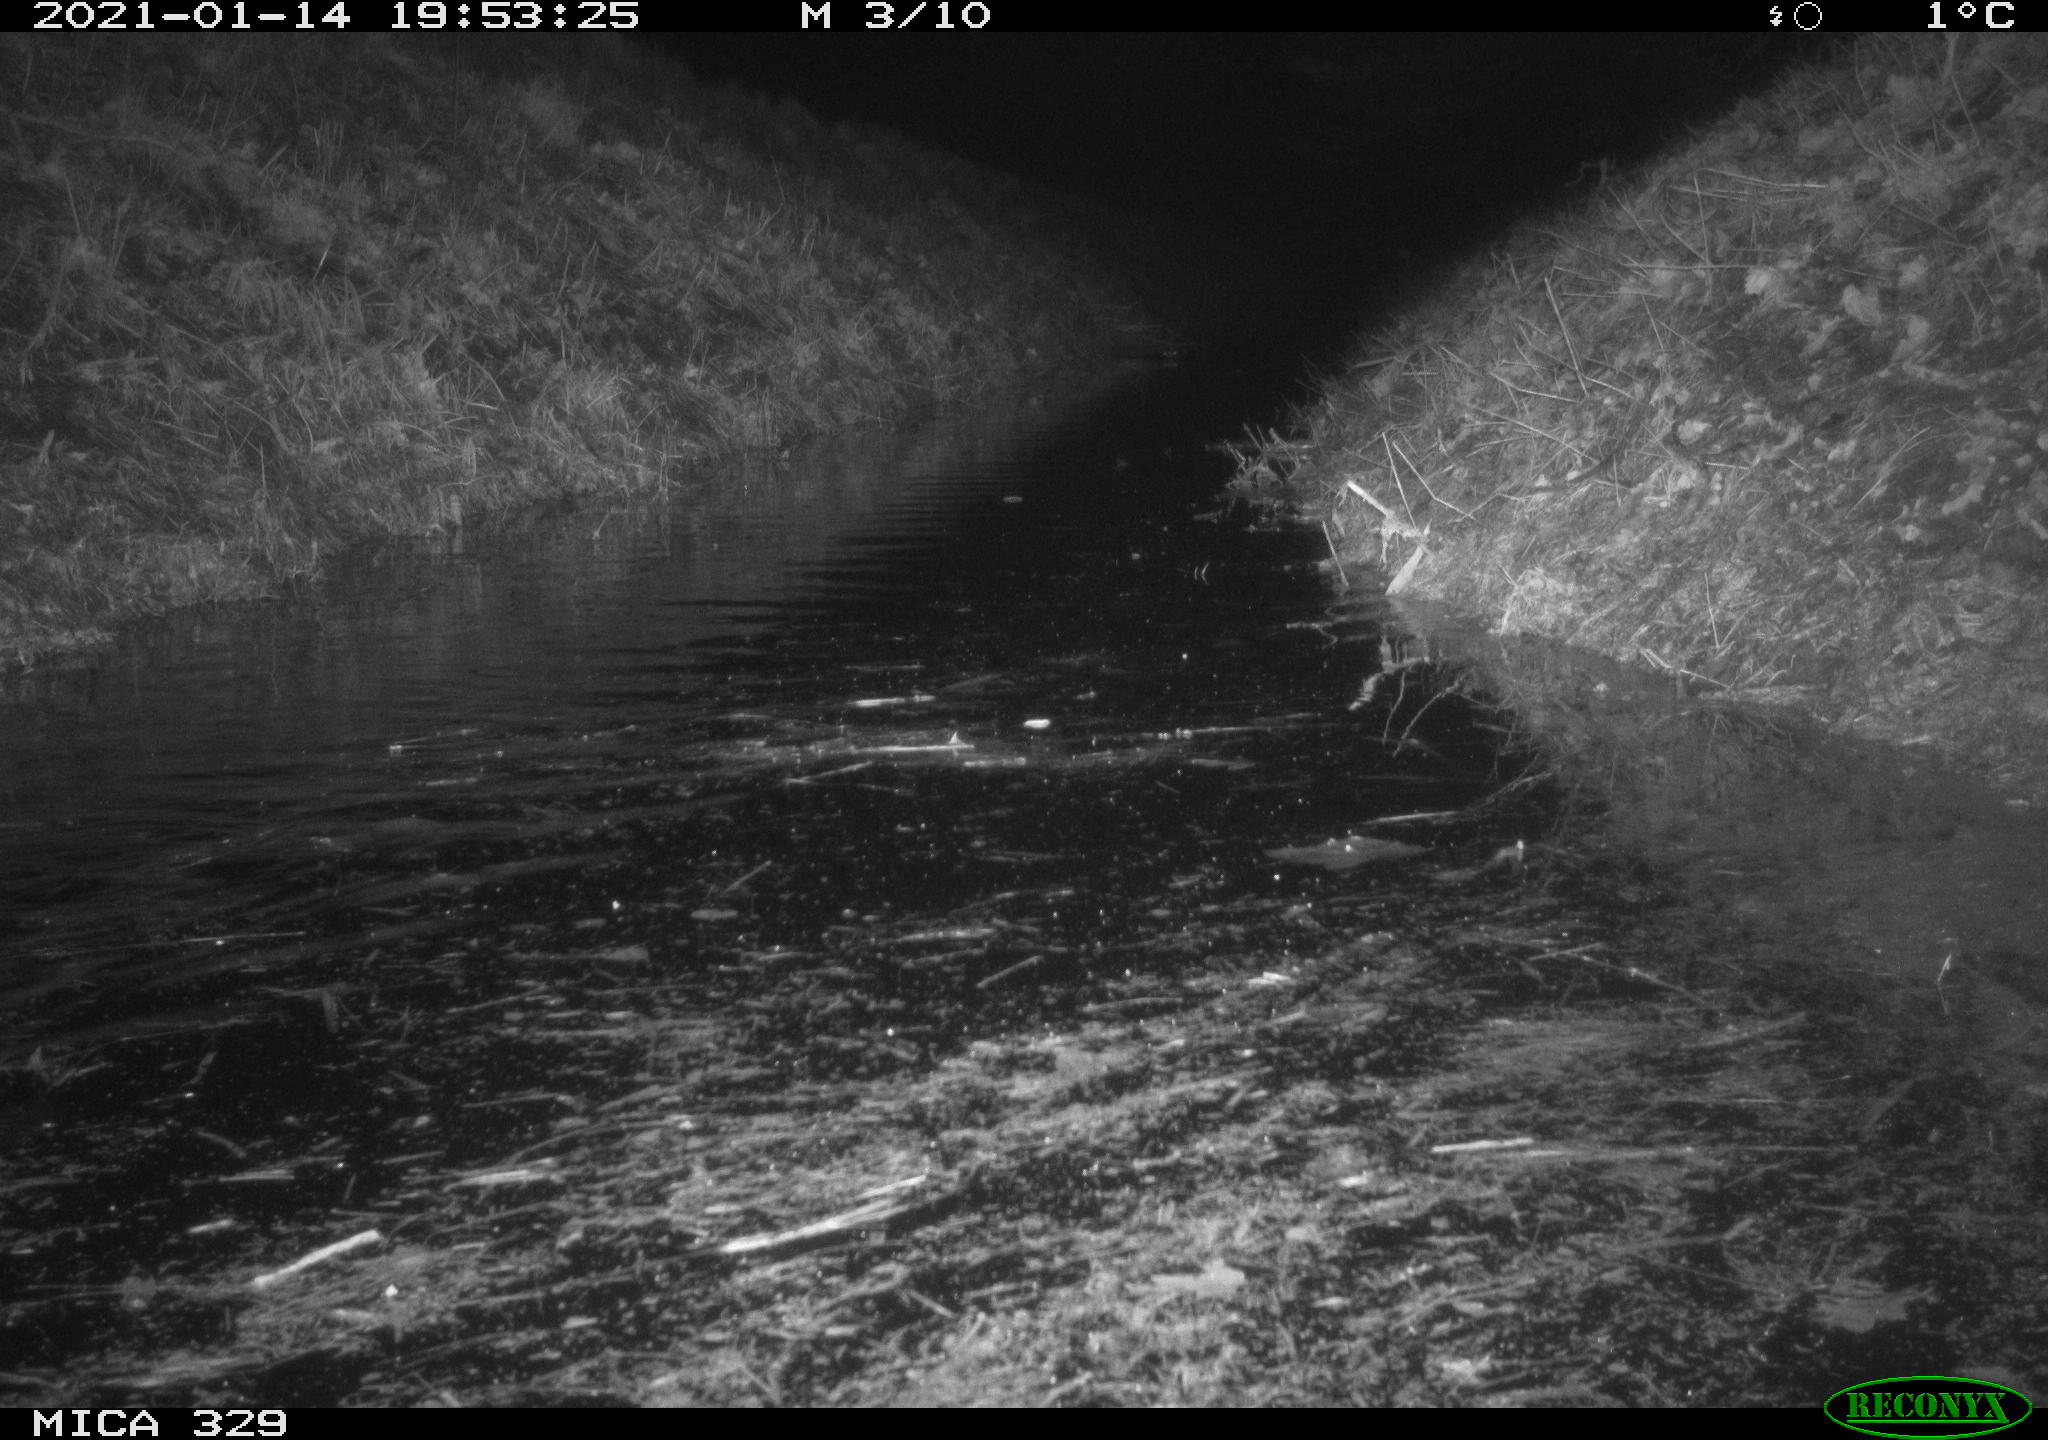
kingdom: Animalia
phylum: Chordata
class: Mammalia
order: Rodentia
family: Myocastoridae
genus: Myocastor
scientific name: Myocastor coypus
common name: Coypu
